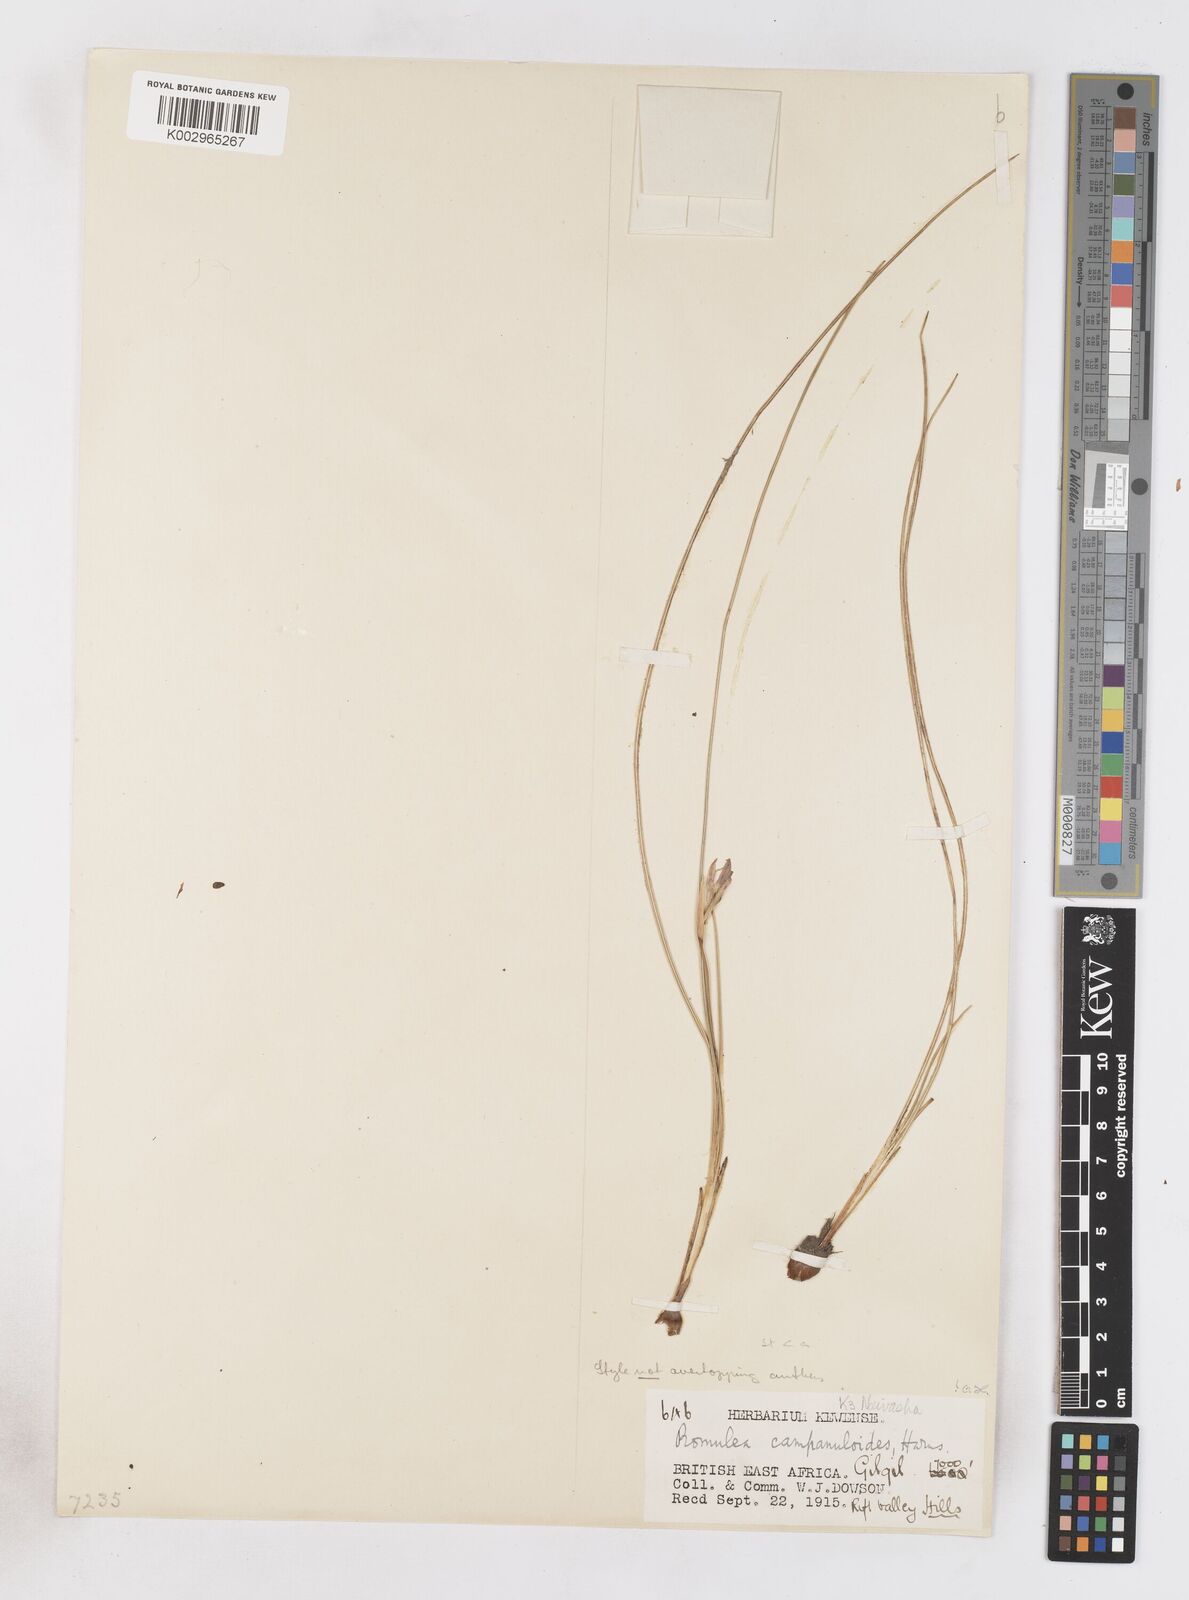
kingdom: Plantae
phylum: Tracheophyta
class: Liliopsida
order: Asparagales
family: Iridaceae
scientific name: Iridaceae
